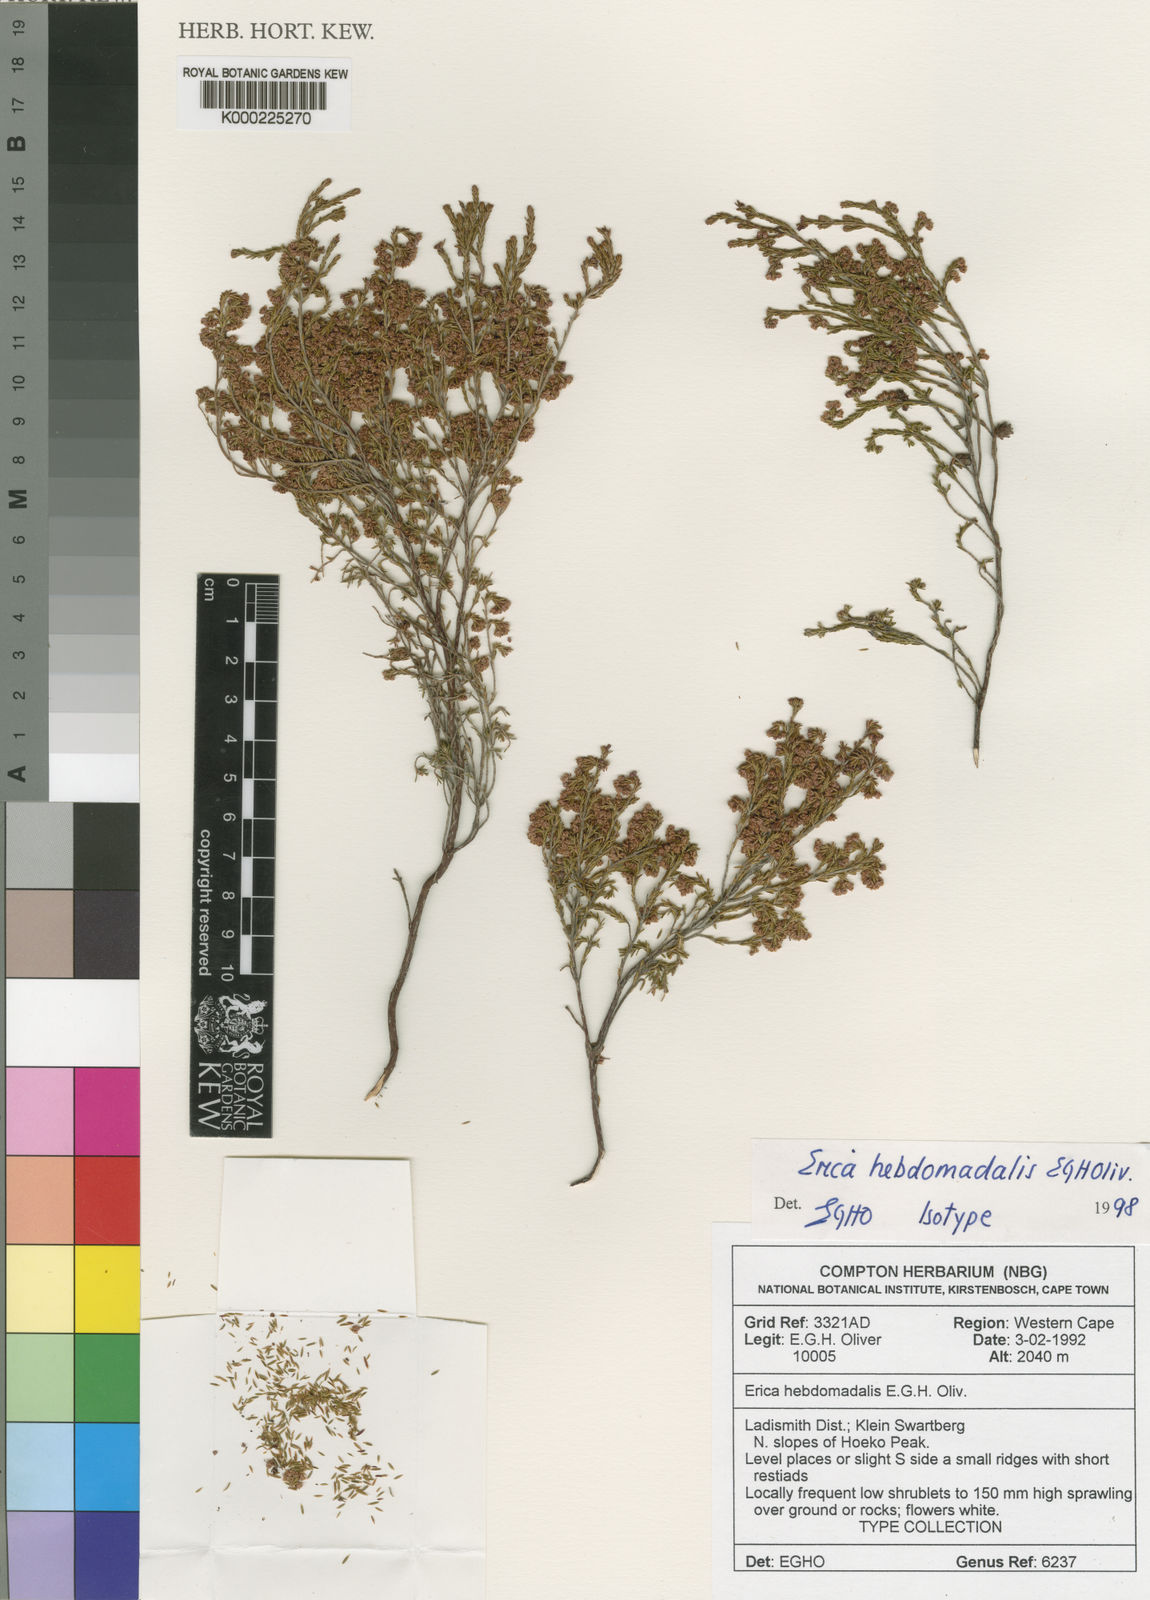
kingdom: Plantae
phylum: Tracheophyta
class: Magnoliopsida
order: Ericales
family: Ericaceae
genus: Erica
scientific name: Erica hebdomadalis
